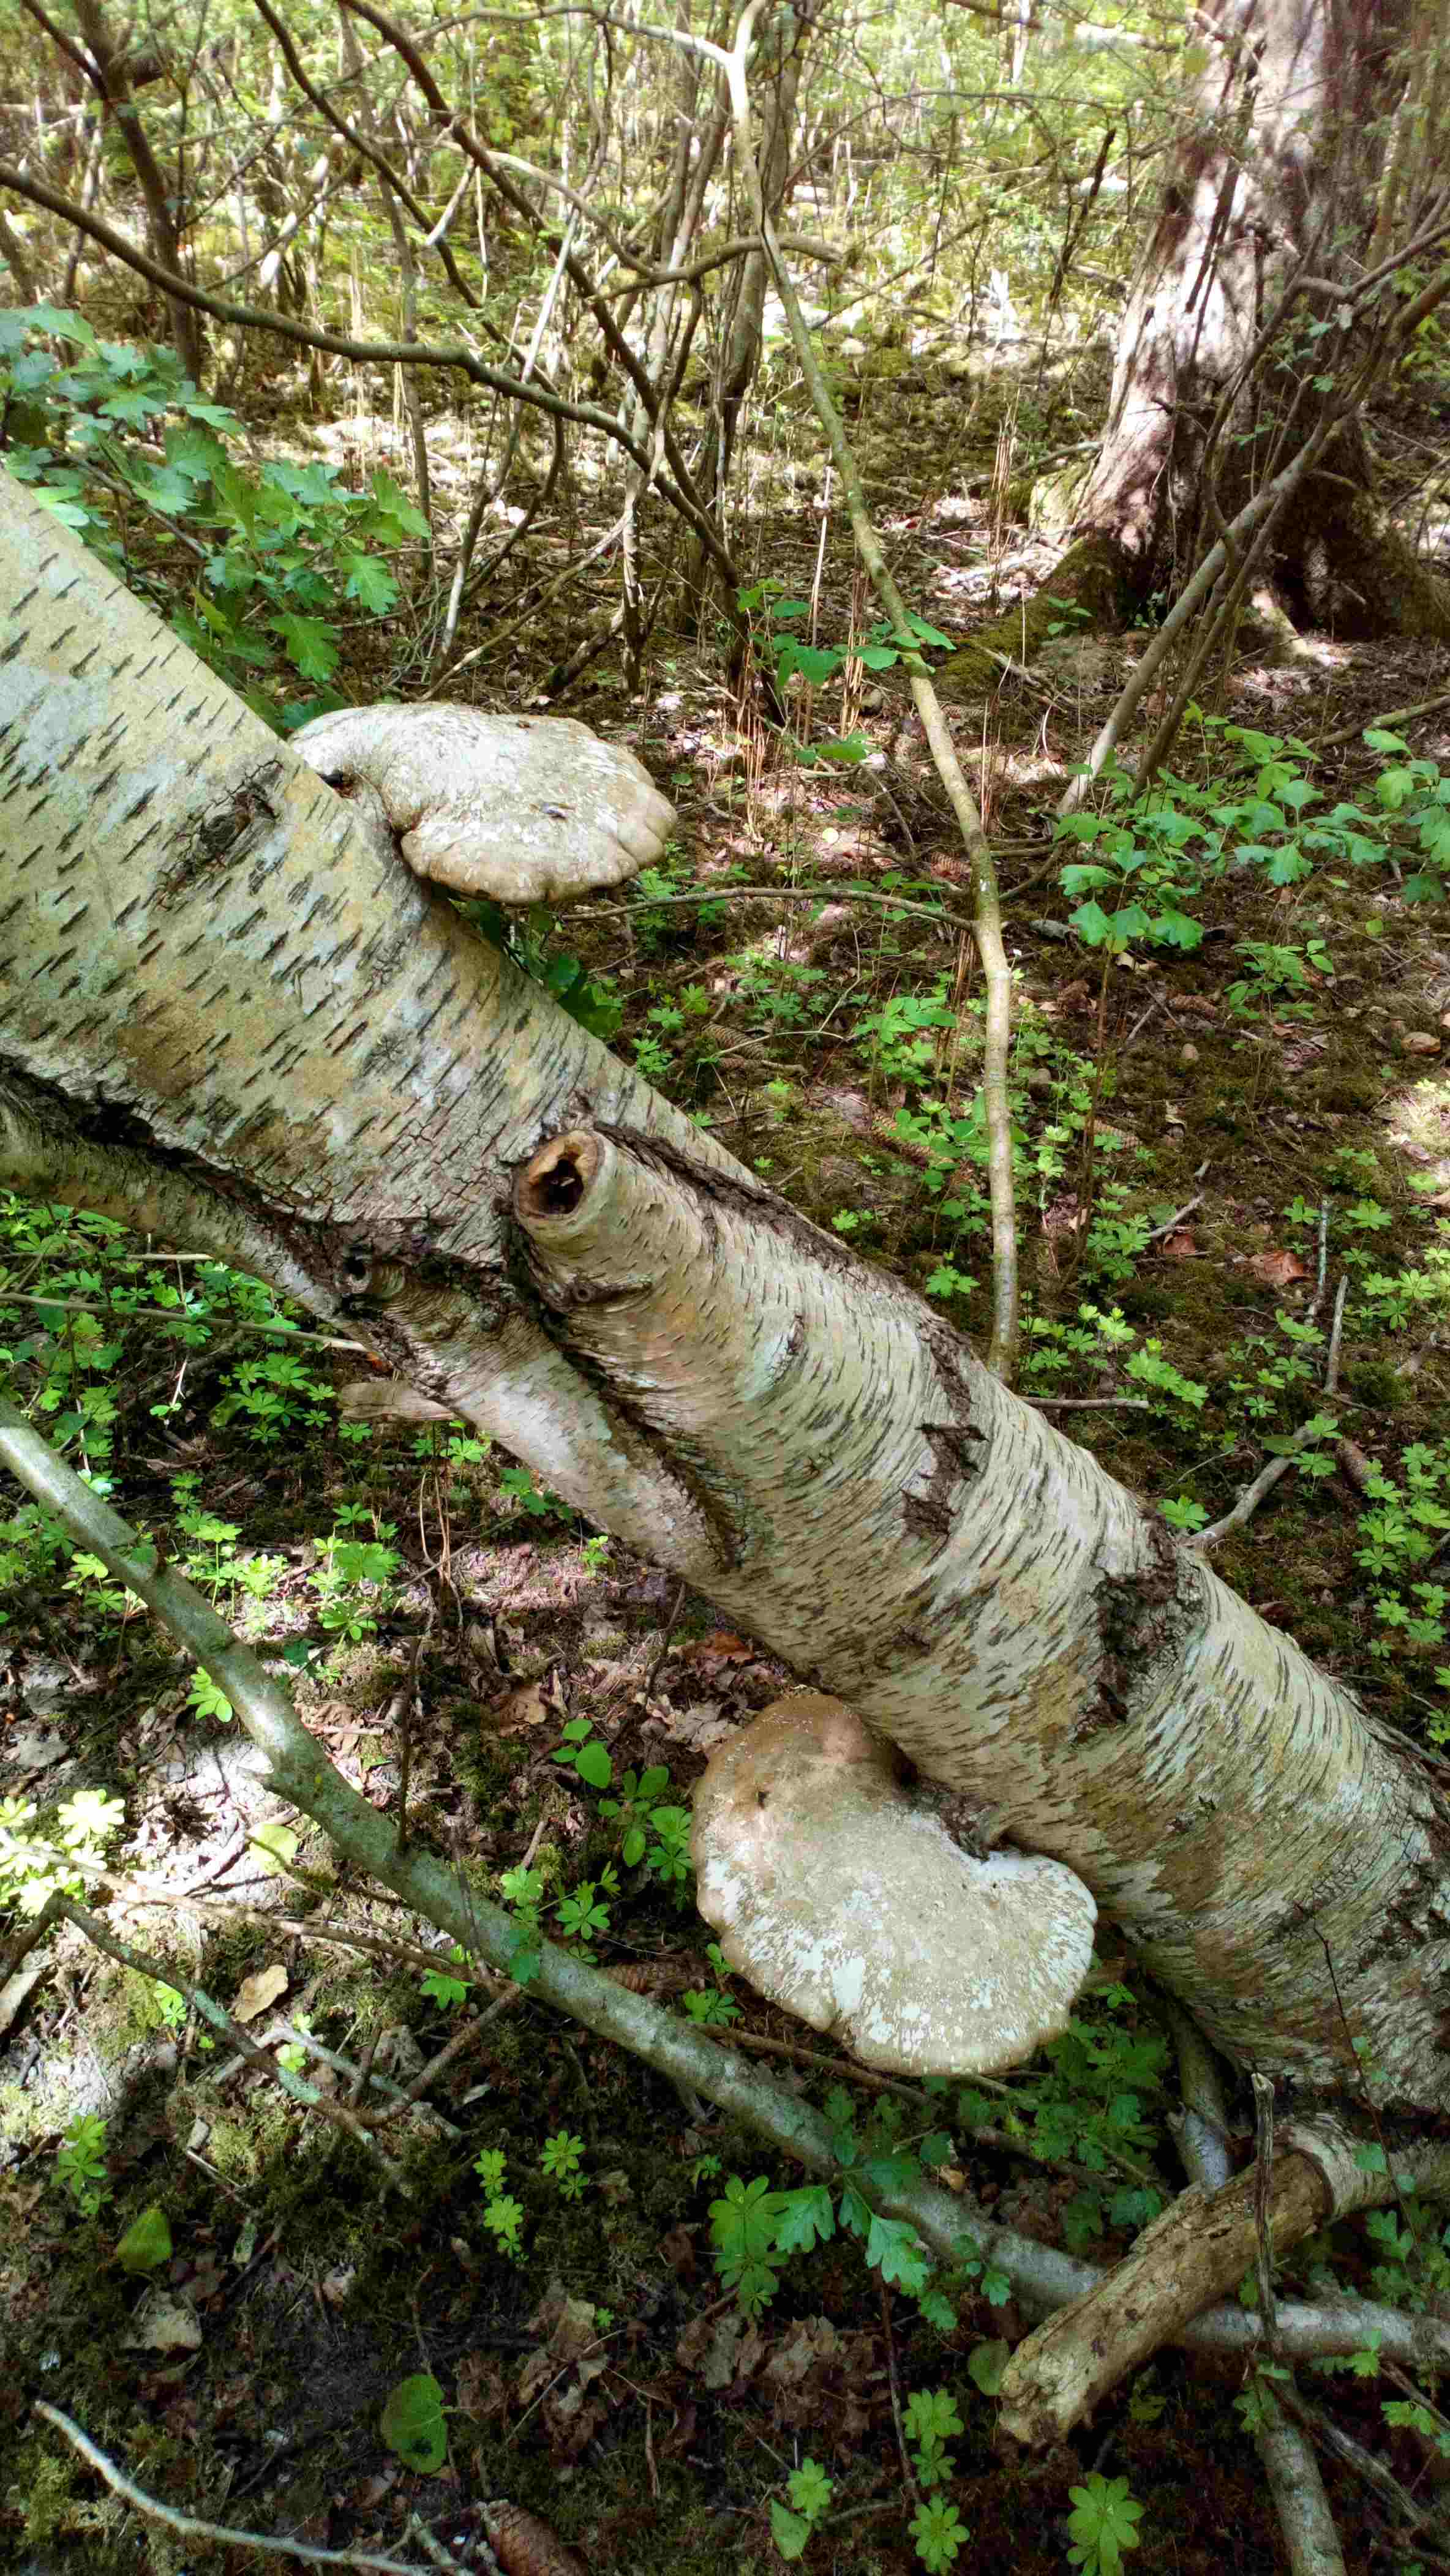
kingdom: Fungi
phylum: Basidiomycota
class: Agaricomycetes
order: Polyporales
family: Fomitopsidaceae
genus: Fomitopsis
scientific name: Fomitopsis betulina
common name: birkeporesvamp
